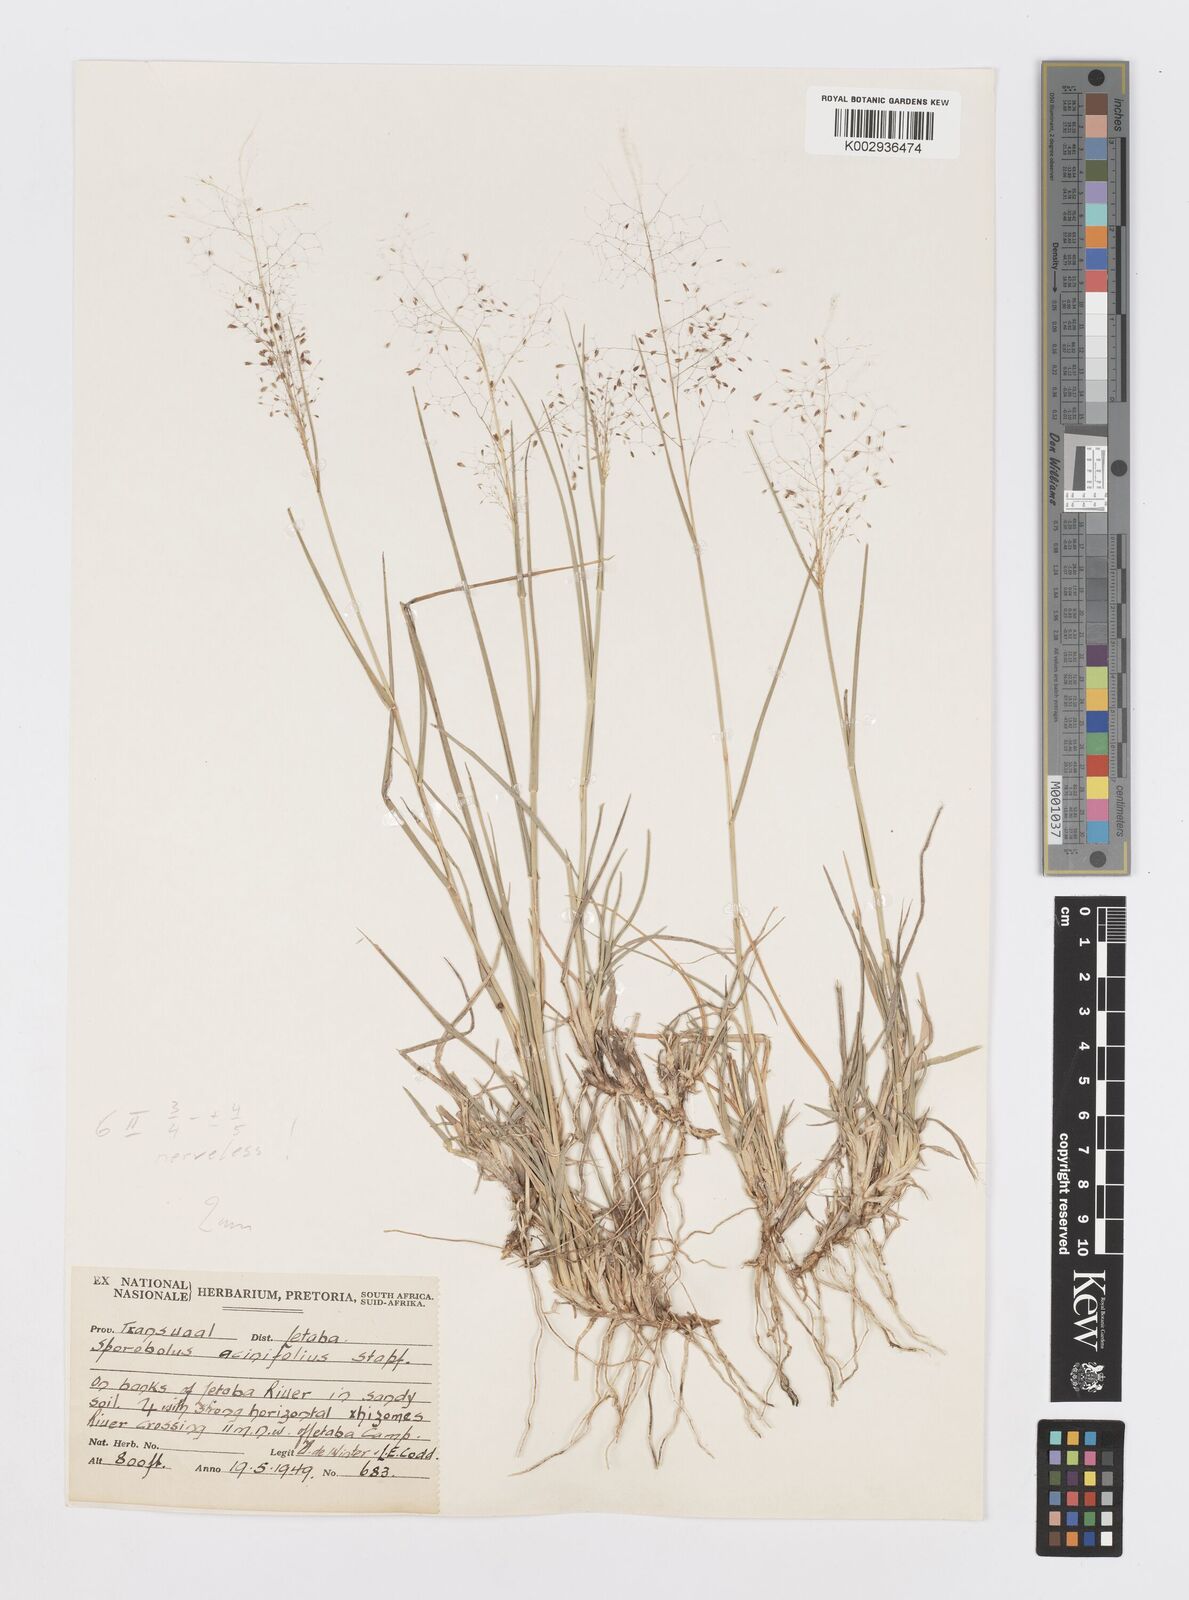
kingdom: Plantae
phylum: Tracheophyta
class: Liliopsida
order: Poales
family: Poaceae
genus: Sporobolus
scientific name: Sporobolus acinifolius
